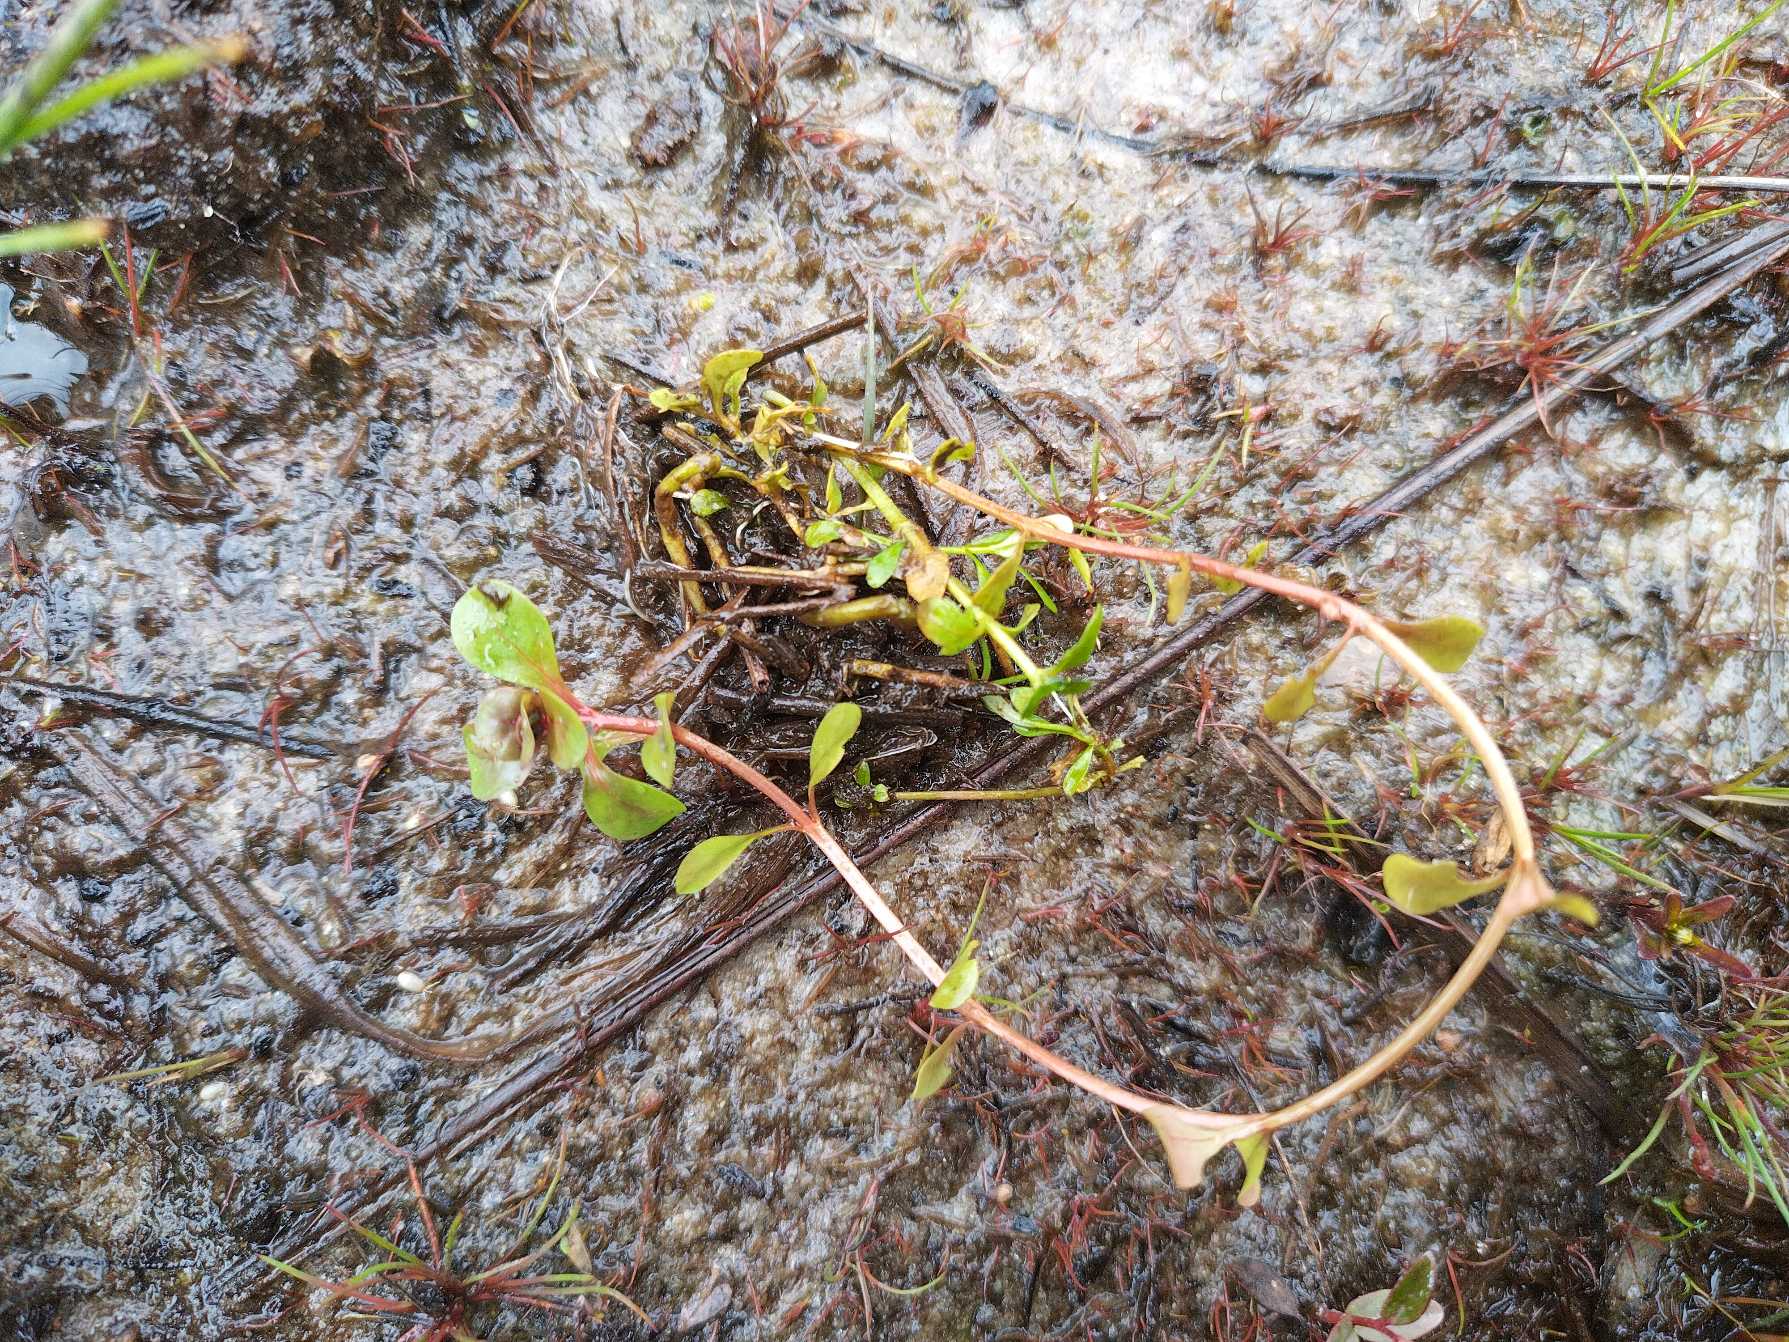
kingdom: Plantae
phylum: Tracheophyta
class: Magnoliopsida
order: Myrtales
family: Lythraceae
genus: Lythrum
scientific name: Lythrum portula
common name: Vandportulak
